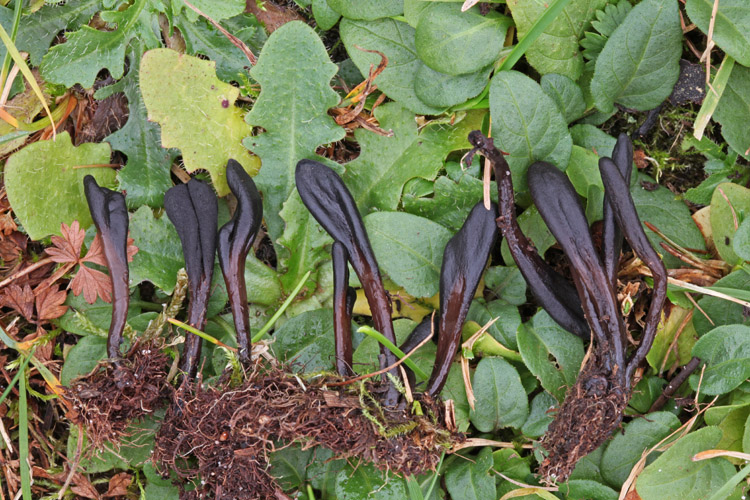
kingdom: Fungi
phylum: Ascomycota
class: Geoglossomycetes
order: Geoglossales
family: Geoglossaceae
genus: Glutinoglossum
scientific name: Glutinoglossum glutinosum
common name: slimet jordtunge
